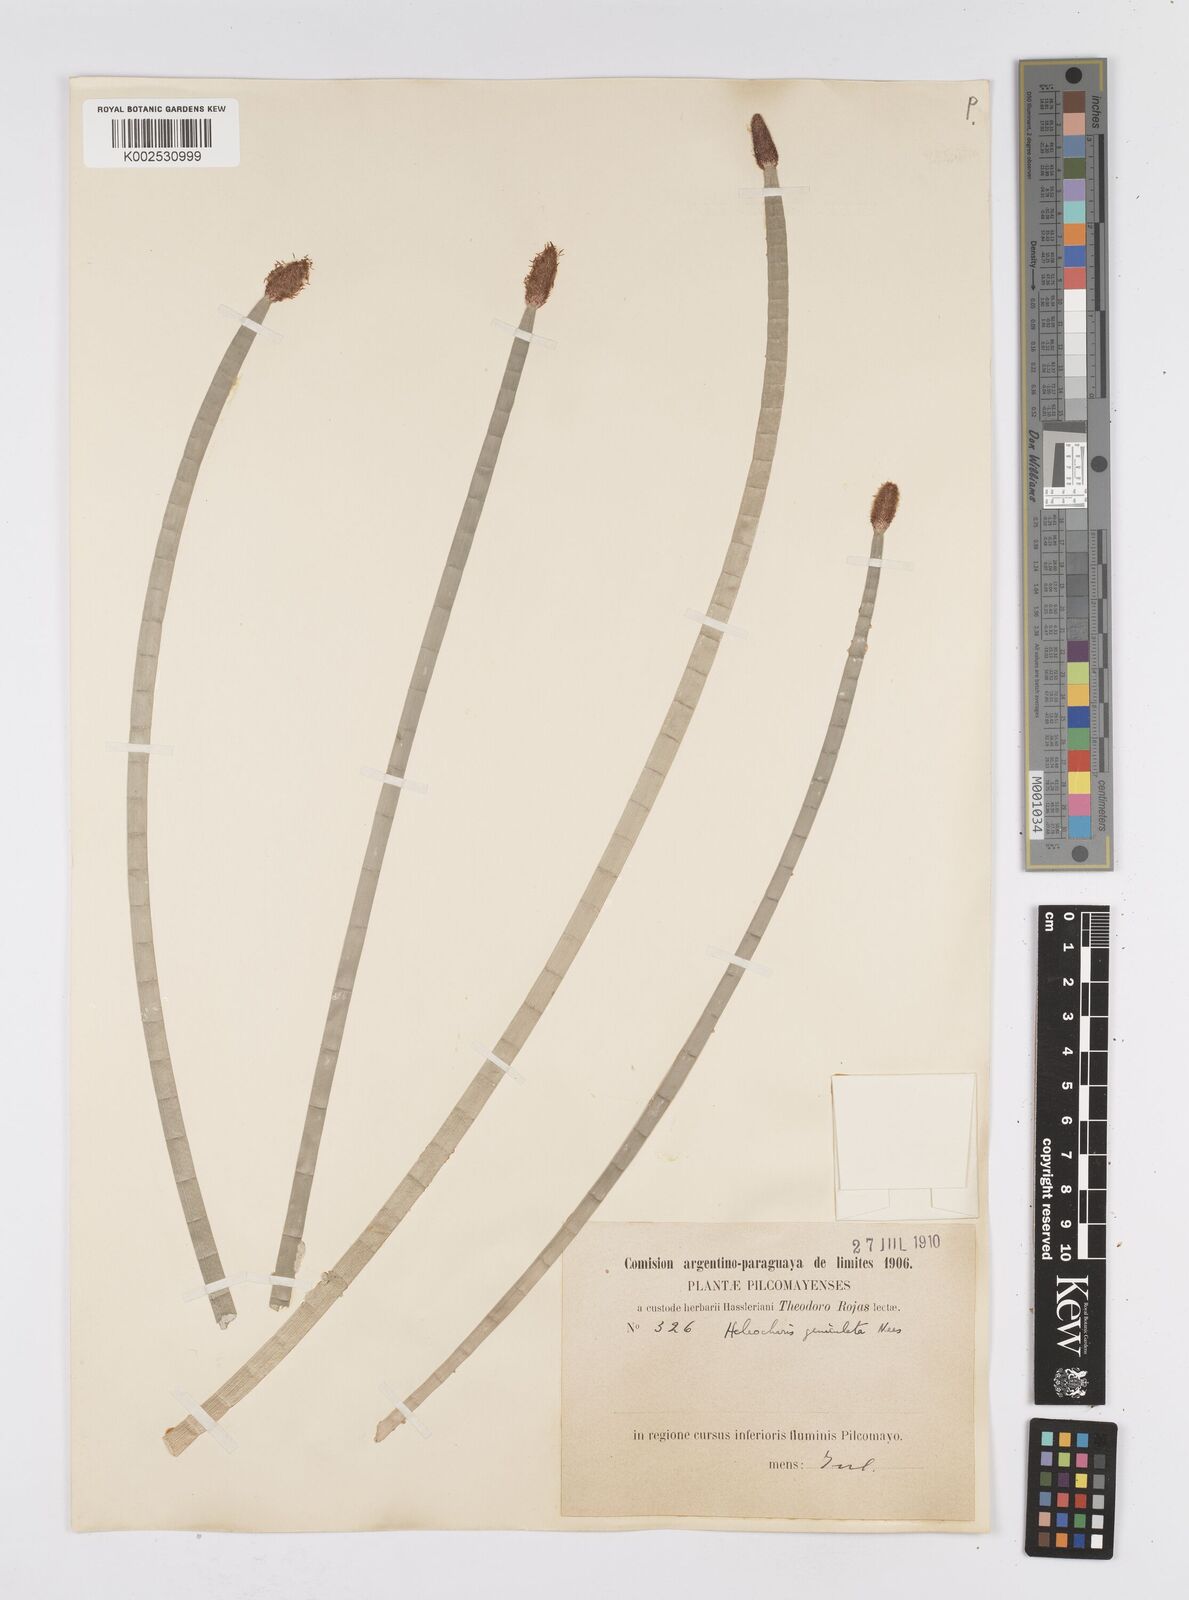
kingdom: Plantae
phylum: Tracheophyta
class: Liliopsida
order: Poales
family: Cyperaceae
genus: Eleocharis
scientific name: Eleocharis elegans
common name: Elegant spike-rush
